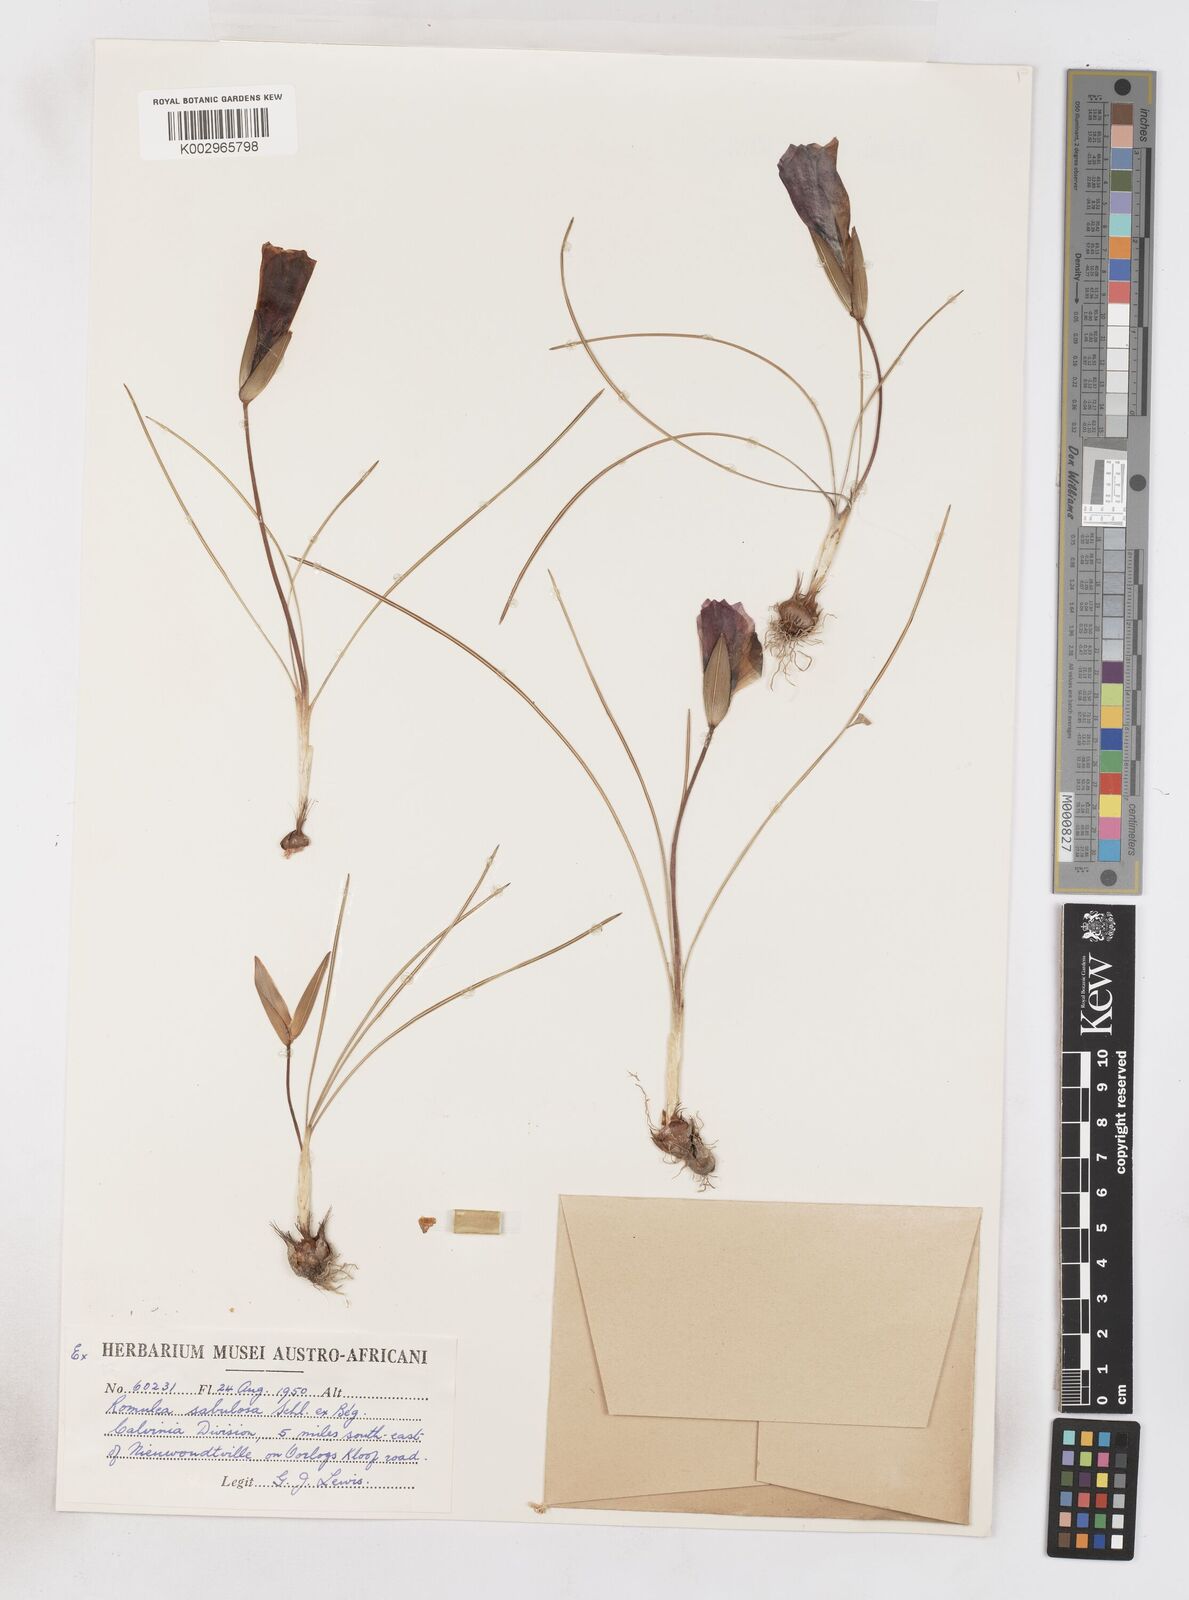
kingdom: Plantae
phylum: Tracheophyta
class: Liliopsida
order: Asparagales
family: Iridaceae
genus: Romulea
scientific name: Romulea sabulosa
